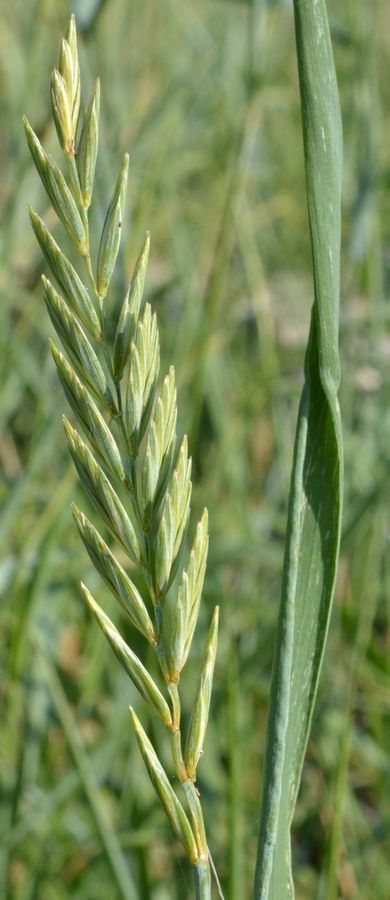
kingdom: Plantae
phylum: Tracheophyta
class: Liliopsida
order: Poales
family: Poaceae
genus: Elymus
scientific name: Elymus repens
